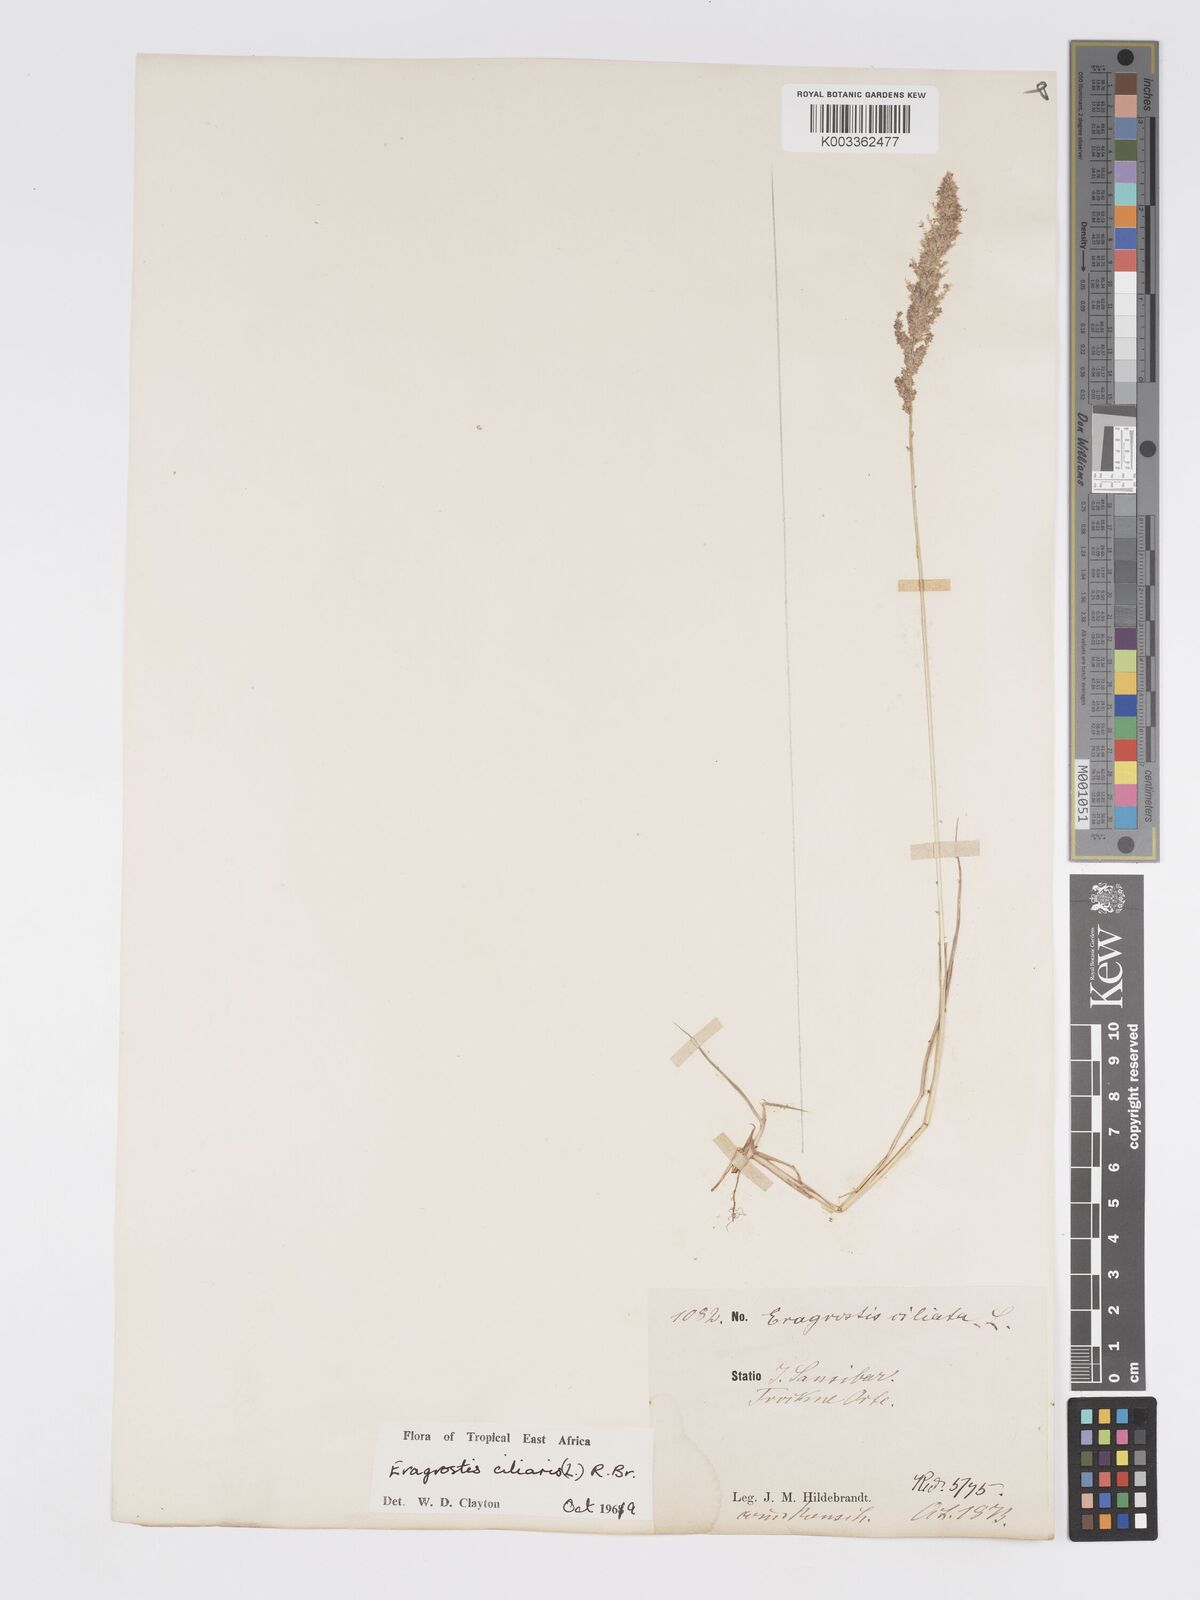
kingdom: Plantae
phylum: Tracheophyta
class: Liliopsida
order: Poales
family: Poaceae
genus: Eragrostis
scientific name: Eragrostis ciliaris
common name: Gophertail lovegrass
